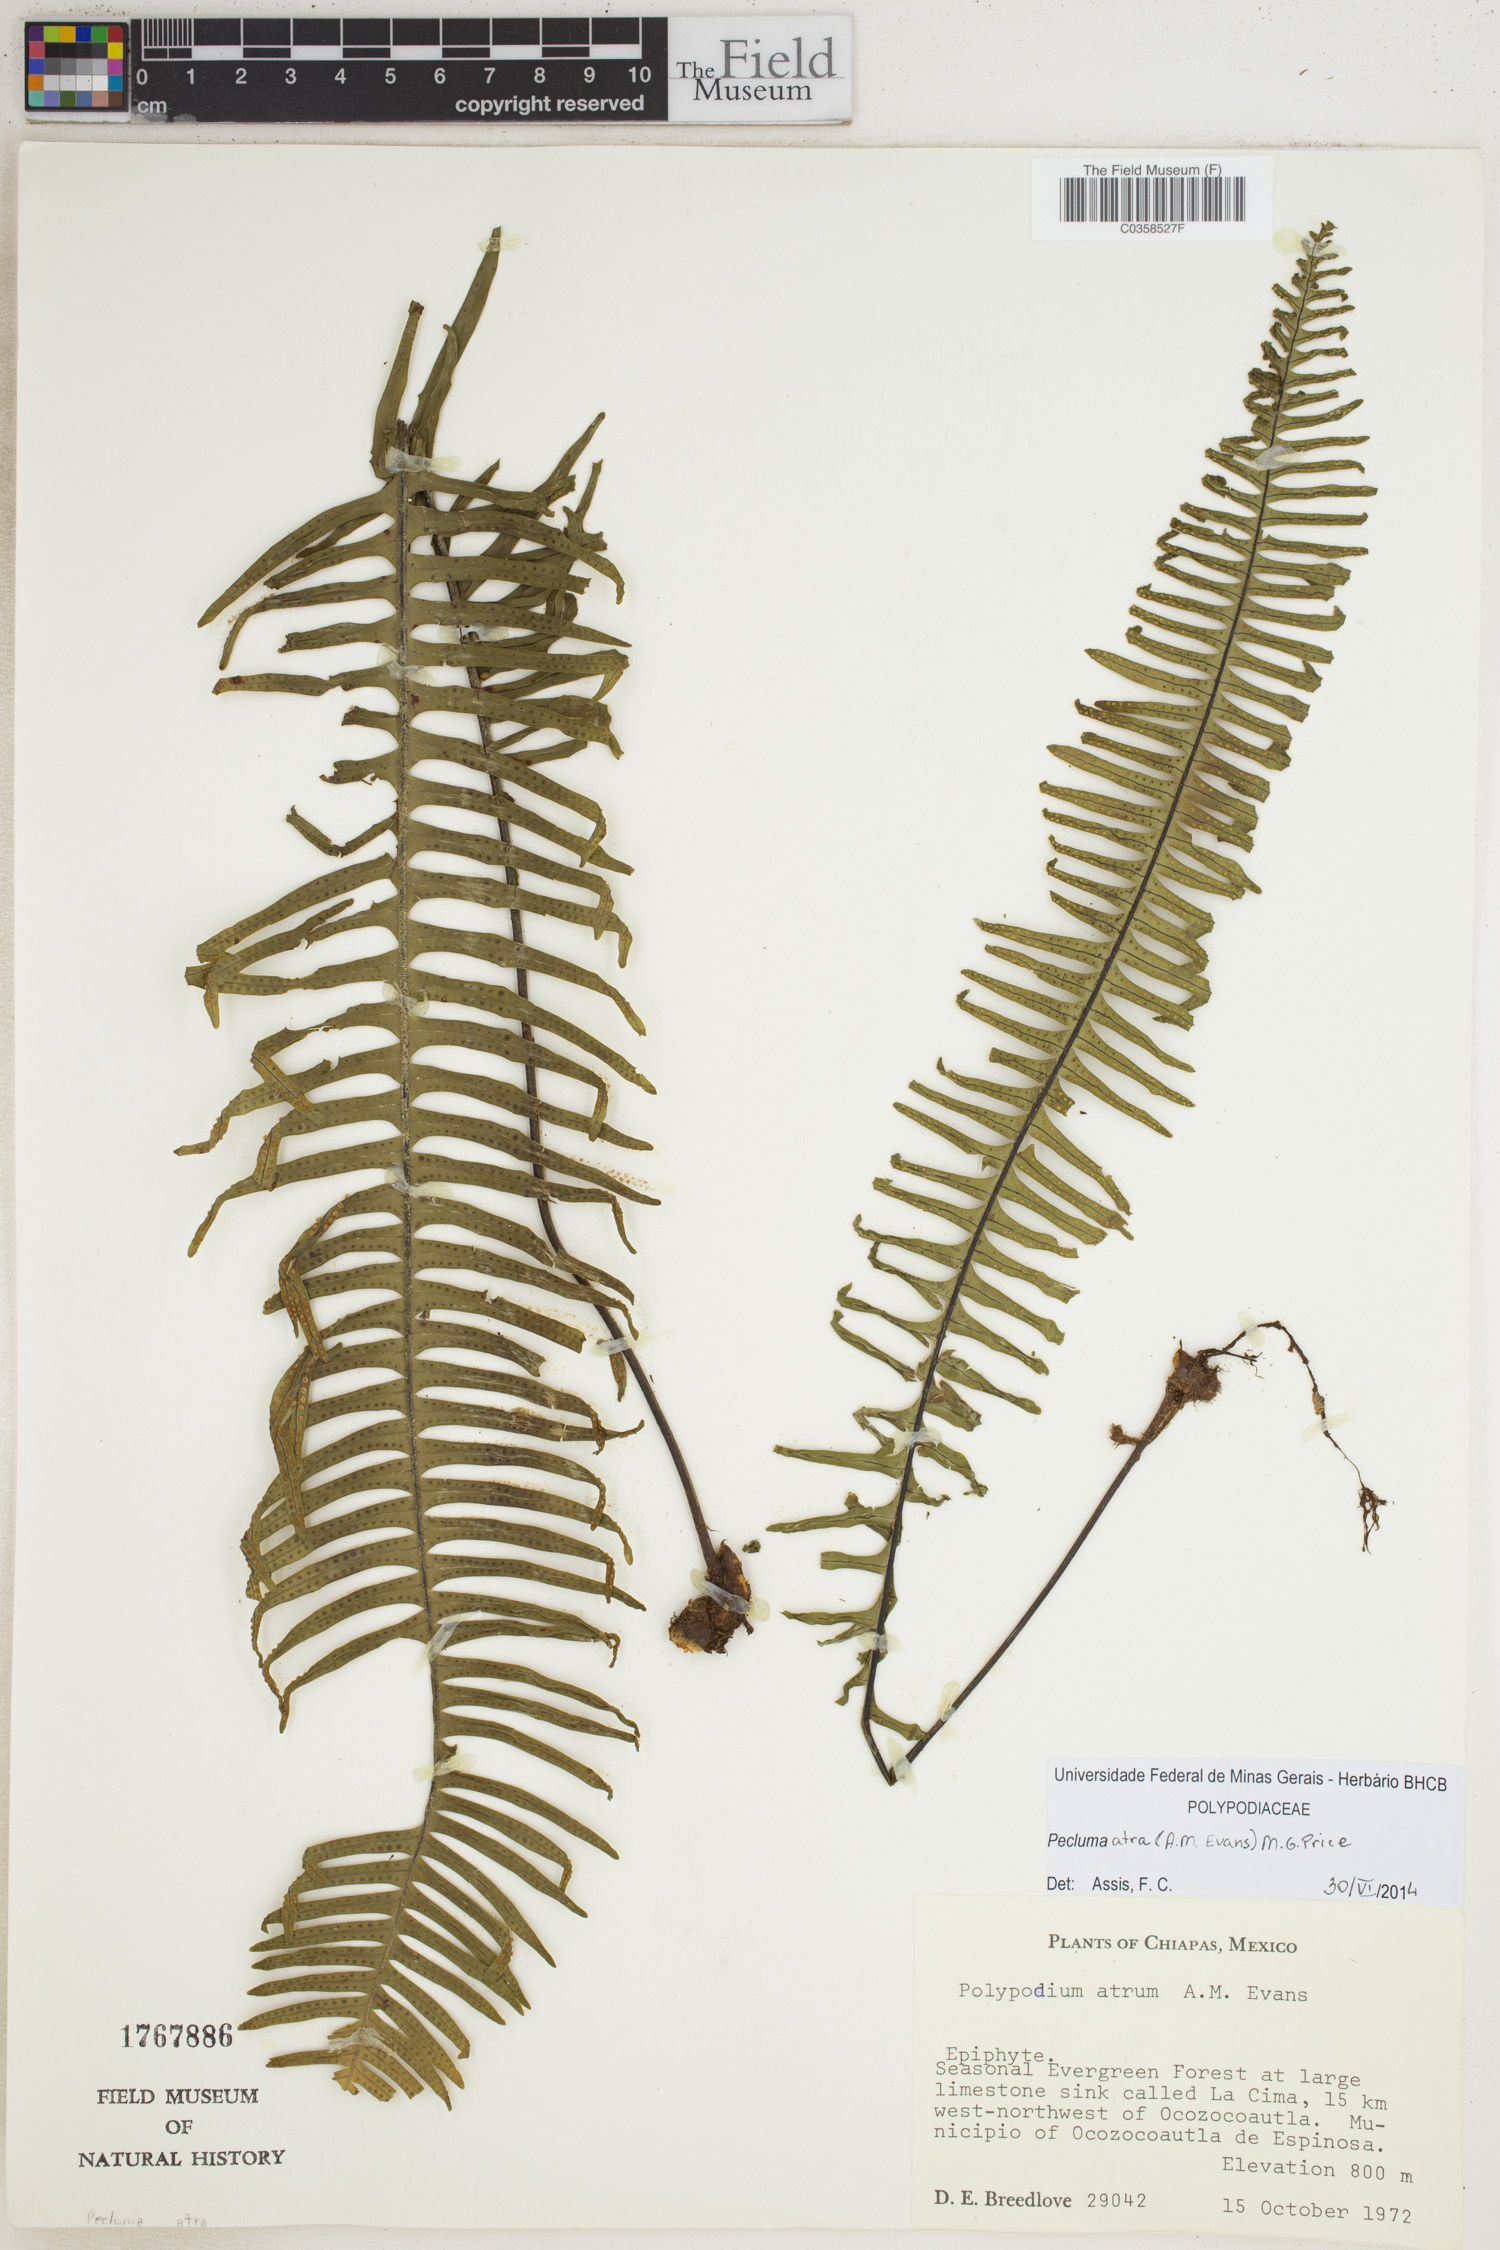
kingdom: Plantae
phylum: Tracheophyta
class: Polypodiopsida
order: Polypodiales
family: Polypodiaceae
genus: Pecluma
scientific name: Pecluma atra
